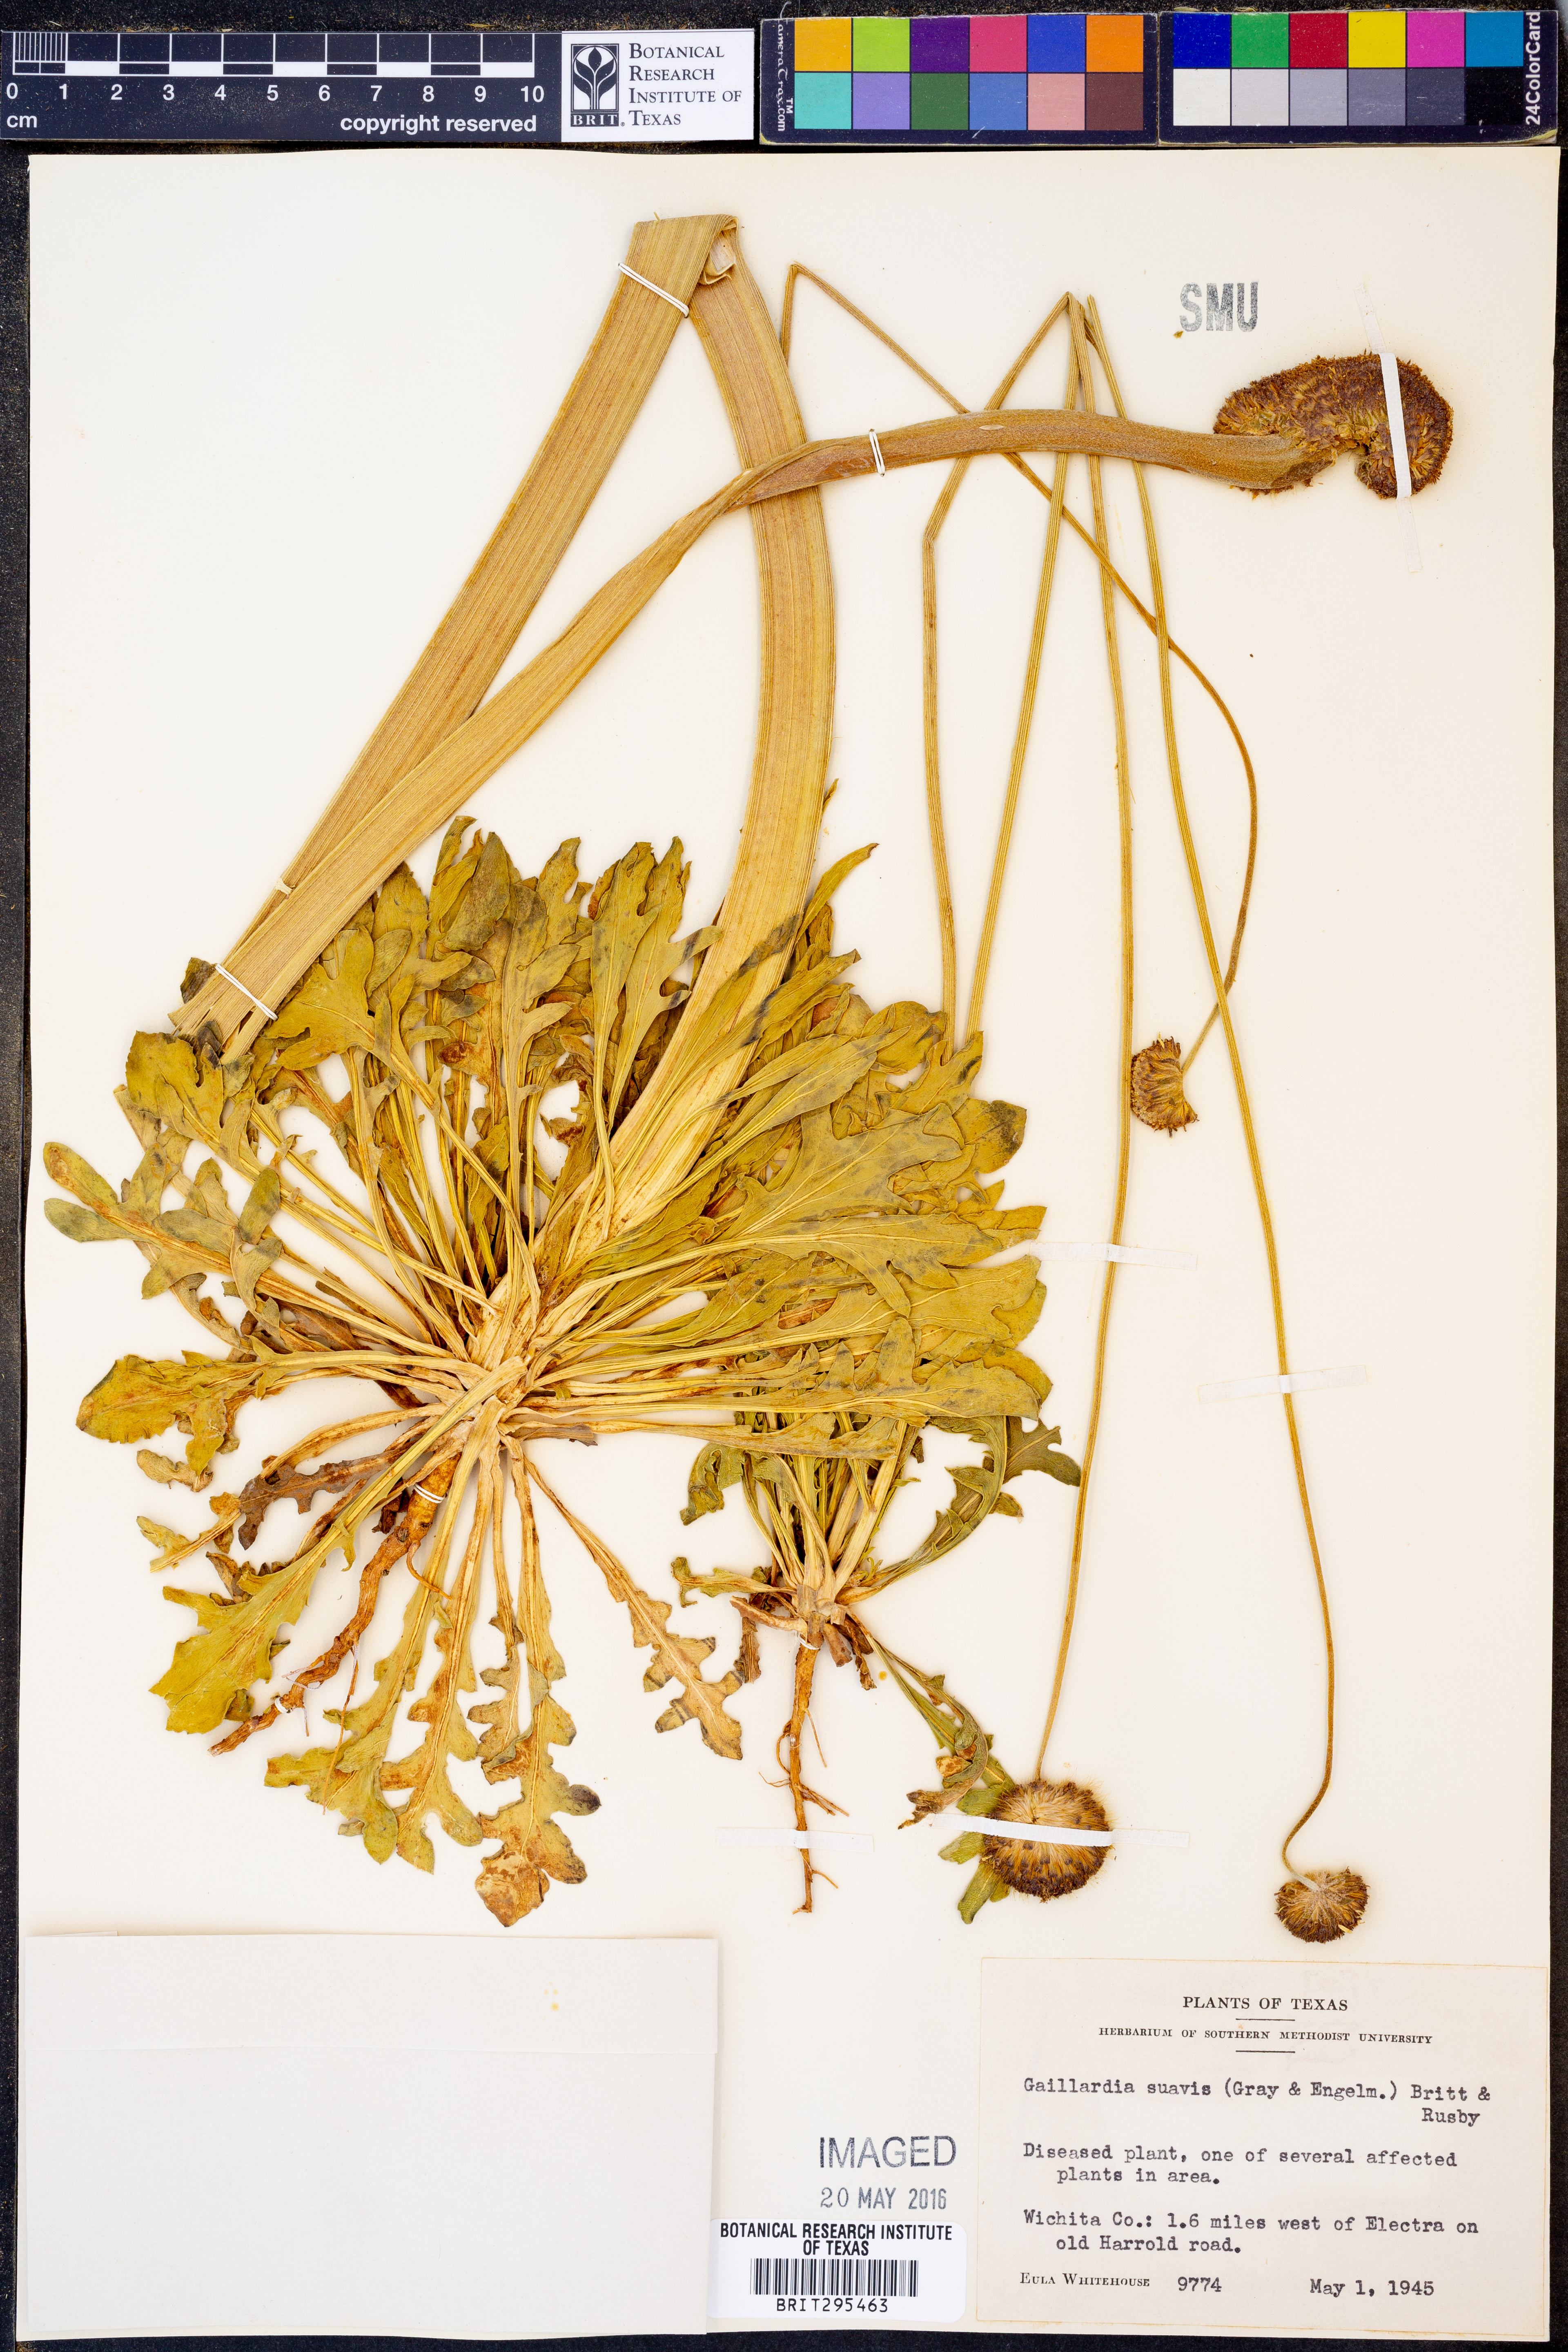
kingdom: Plantae
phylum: Tracheophyta
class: Magnoliopsida
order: Asterales
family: Asteraceae
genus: Gaillardia
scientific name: Gaillardia suavis
